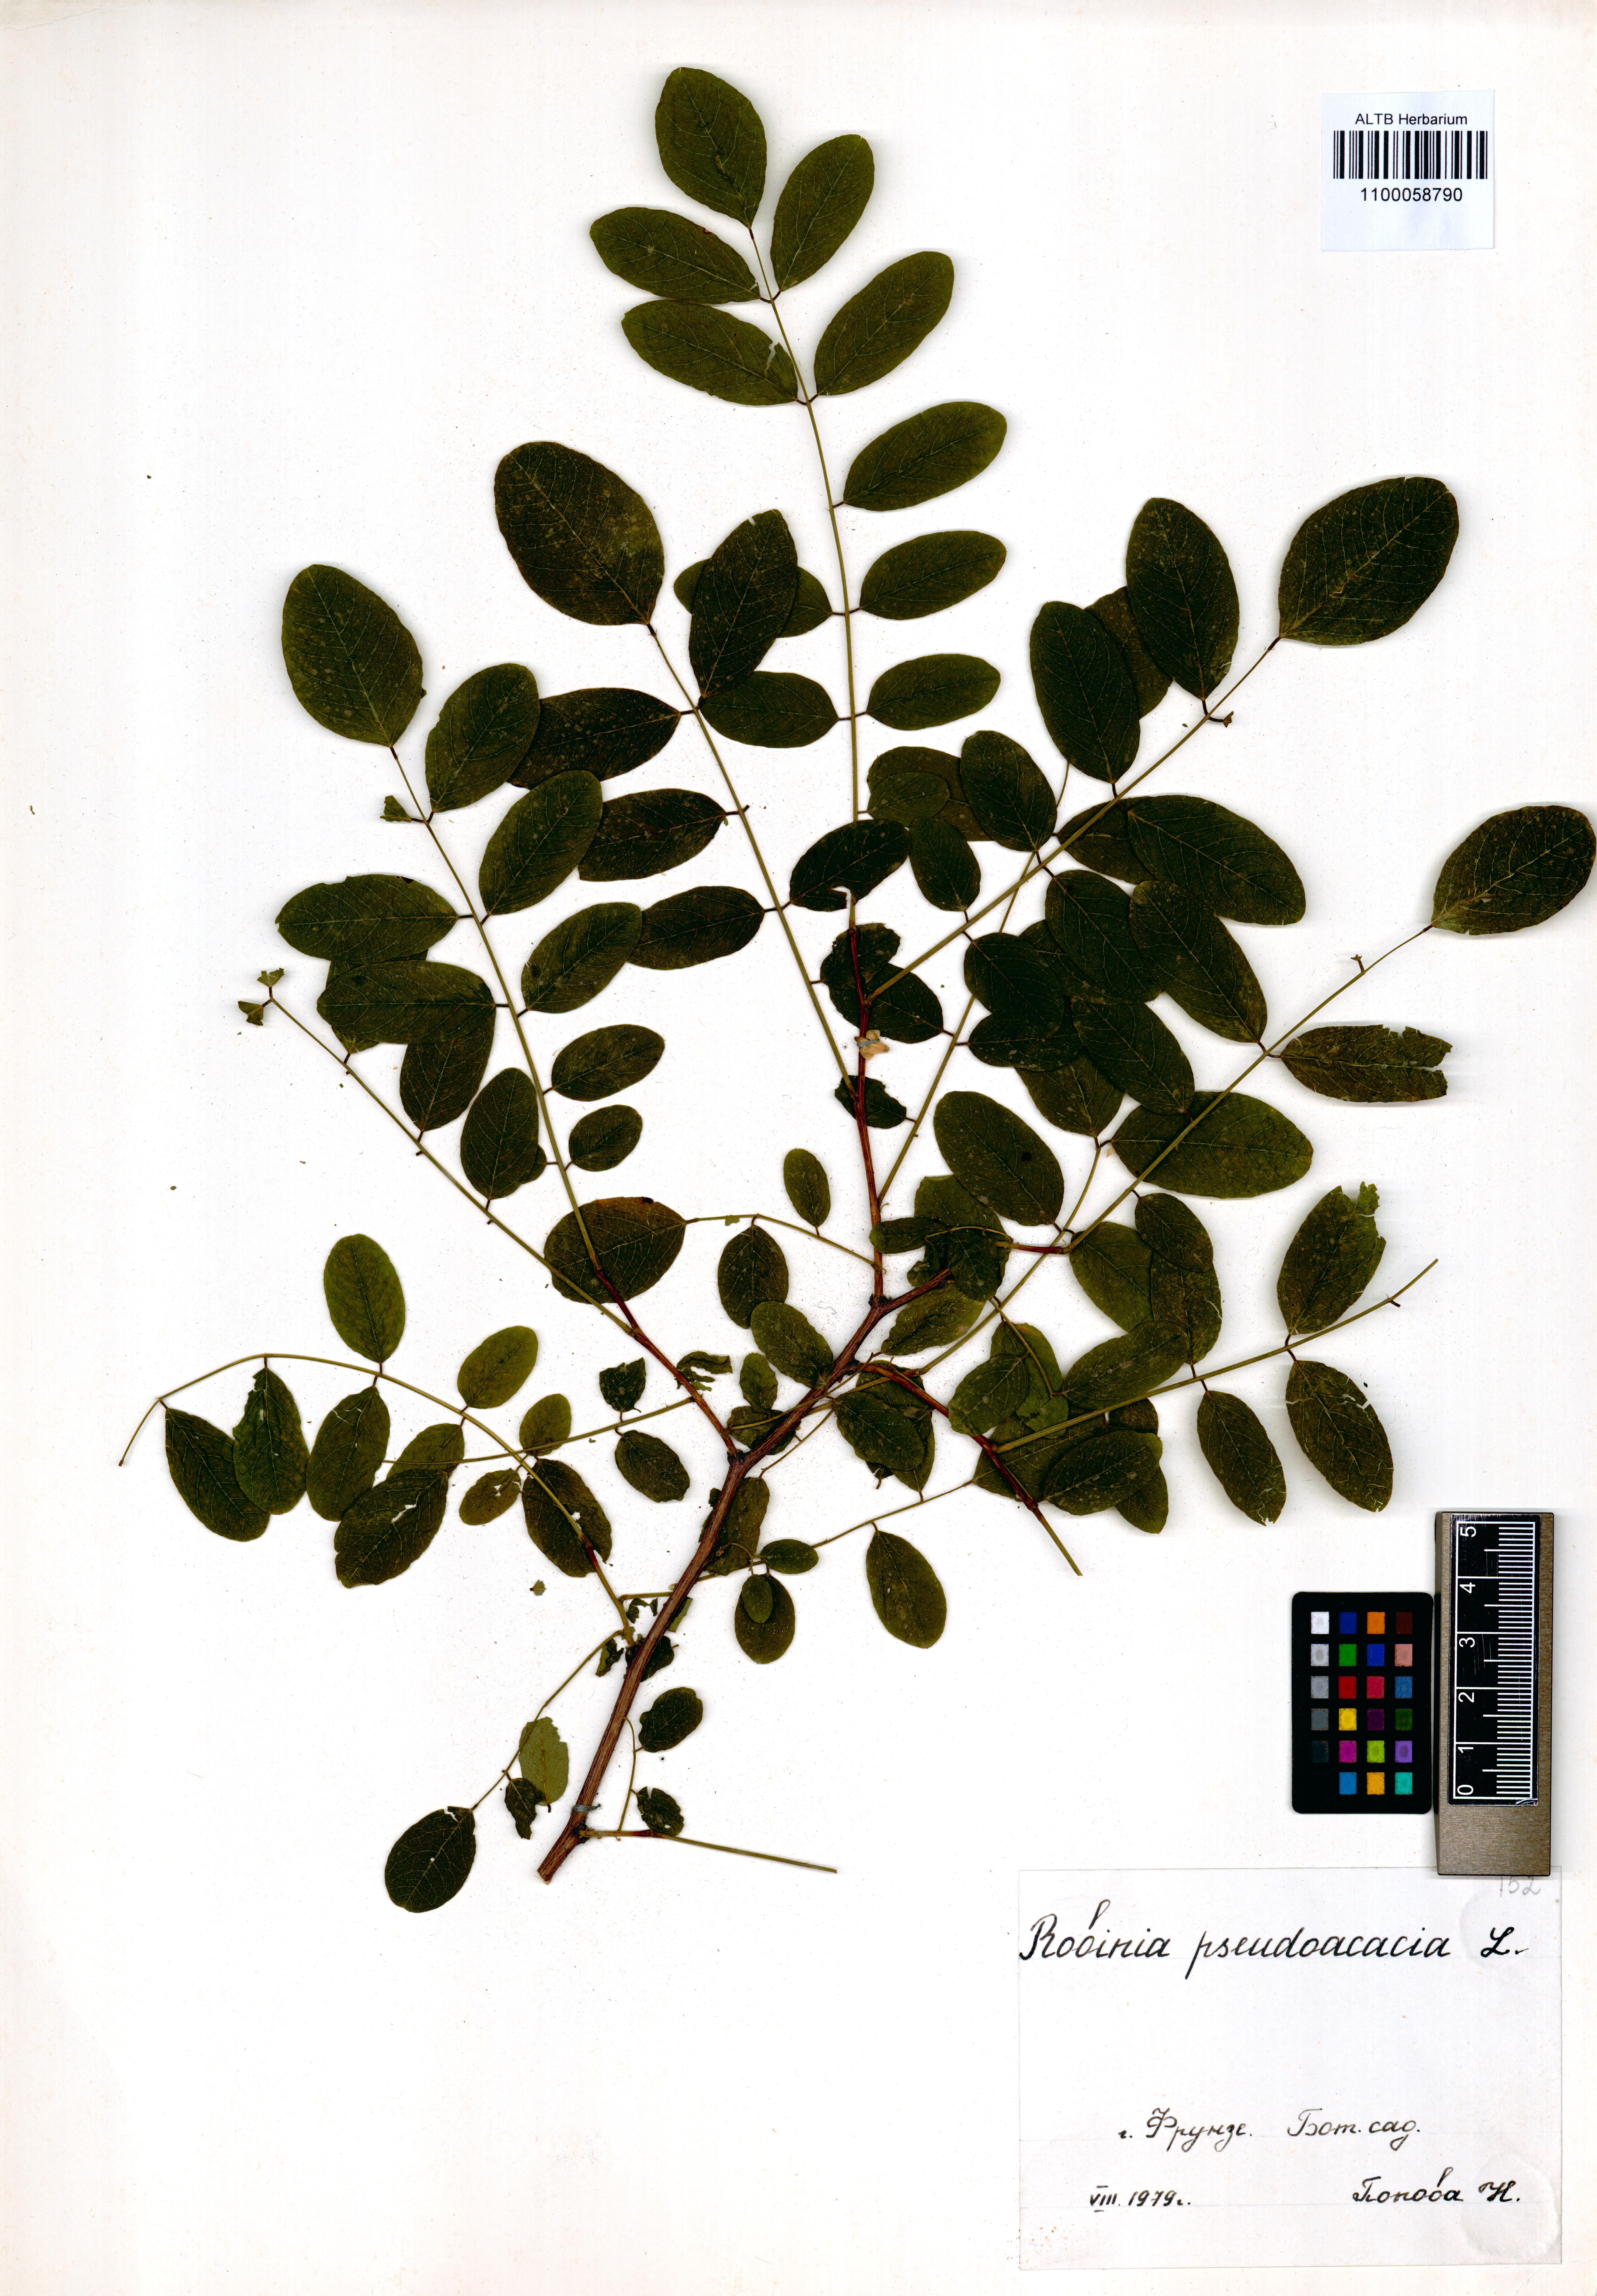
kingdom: Plantae
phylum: Tracheophyta
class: Magnoliopsida
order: Fabales
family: Fabaceae
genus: Robinia
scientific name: Robinia pseudoacacia
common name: Black locust
